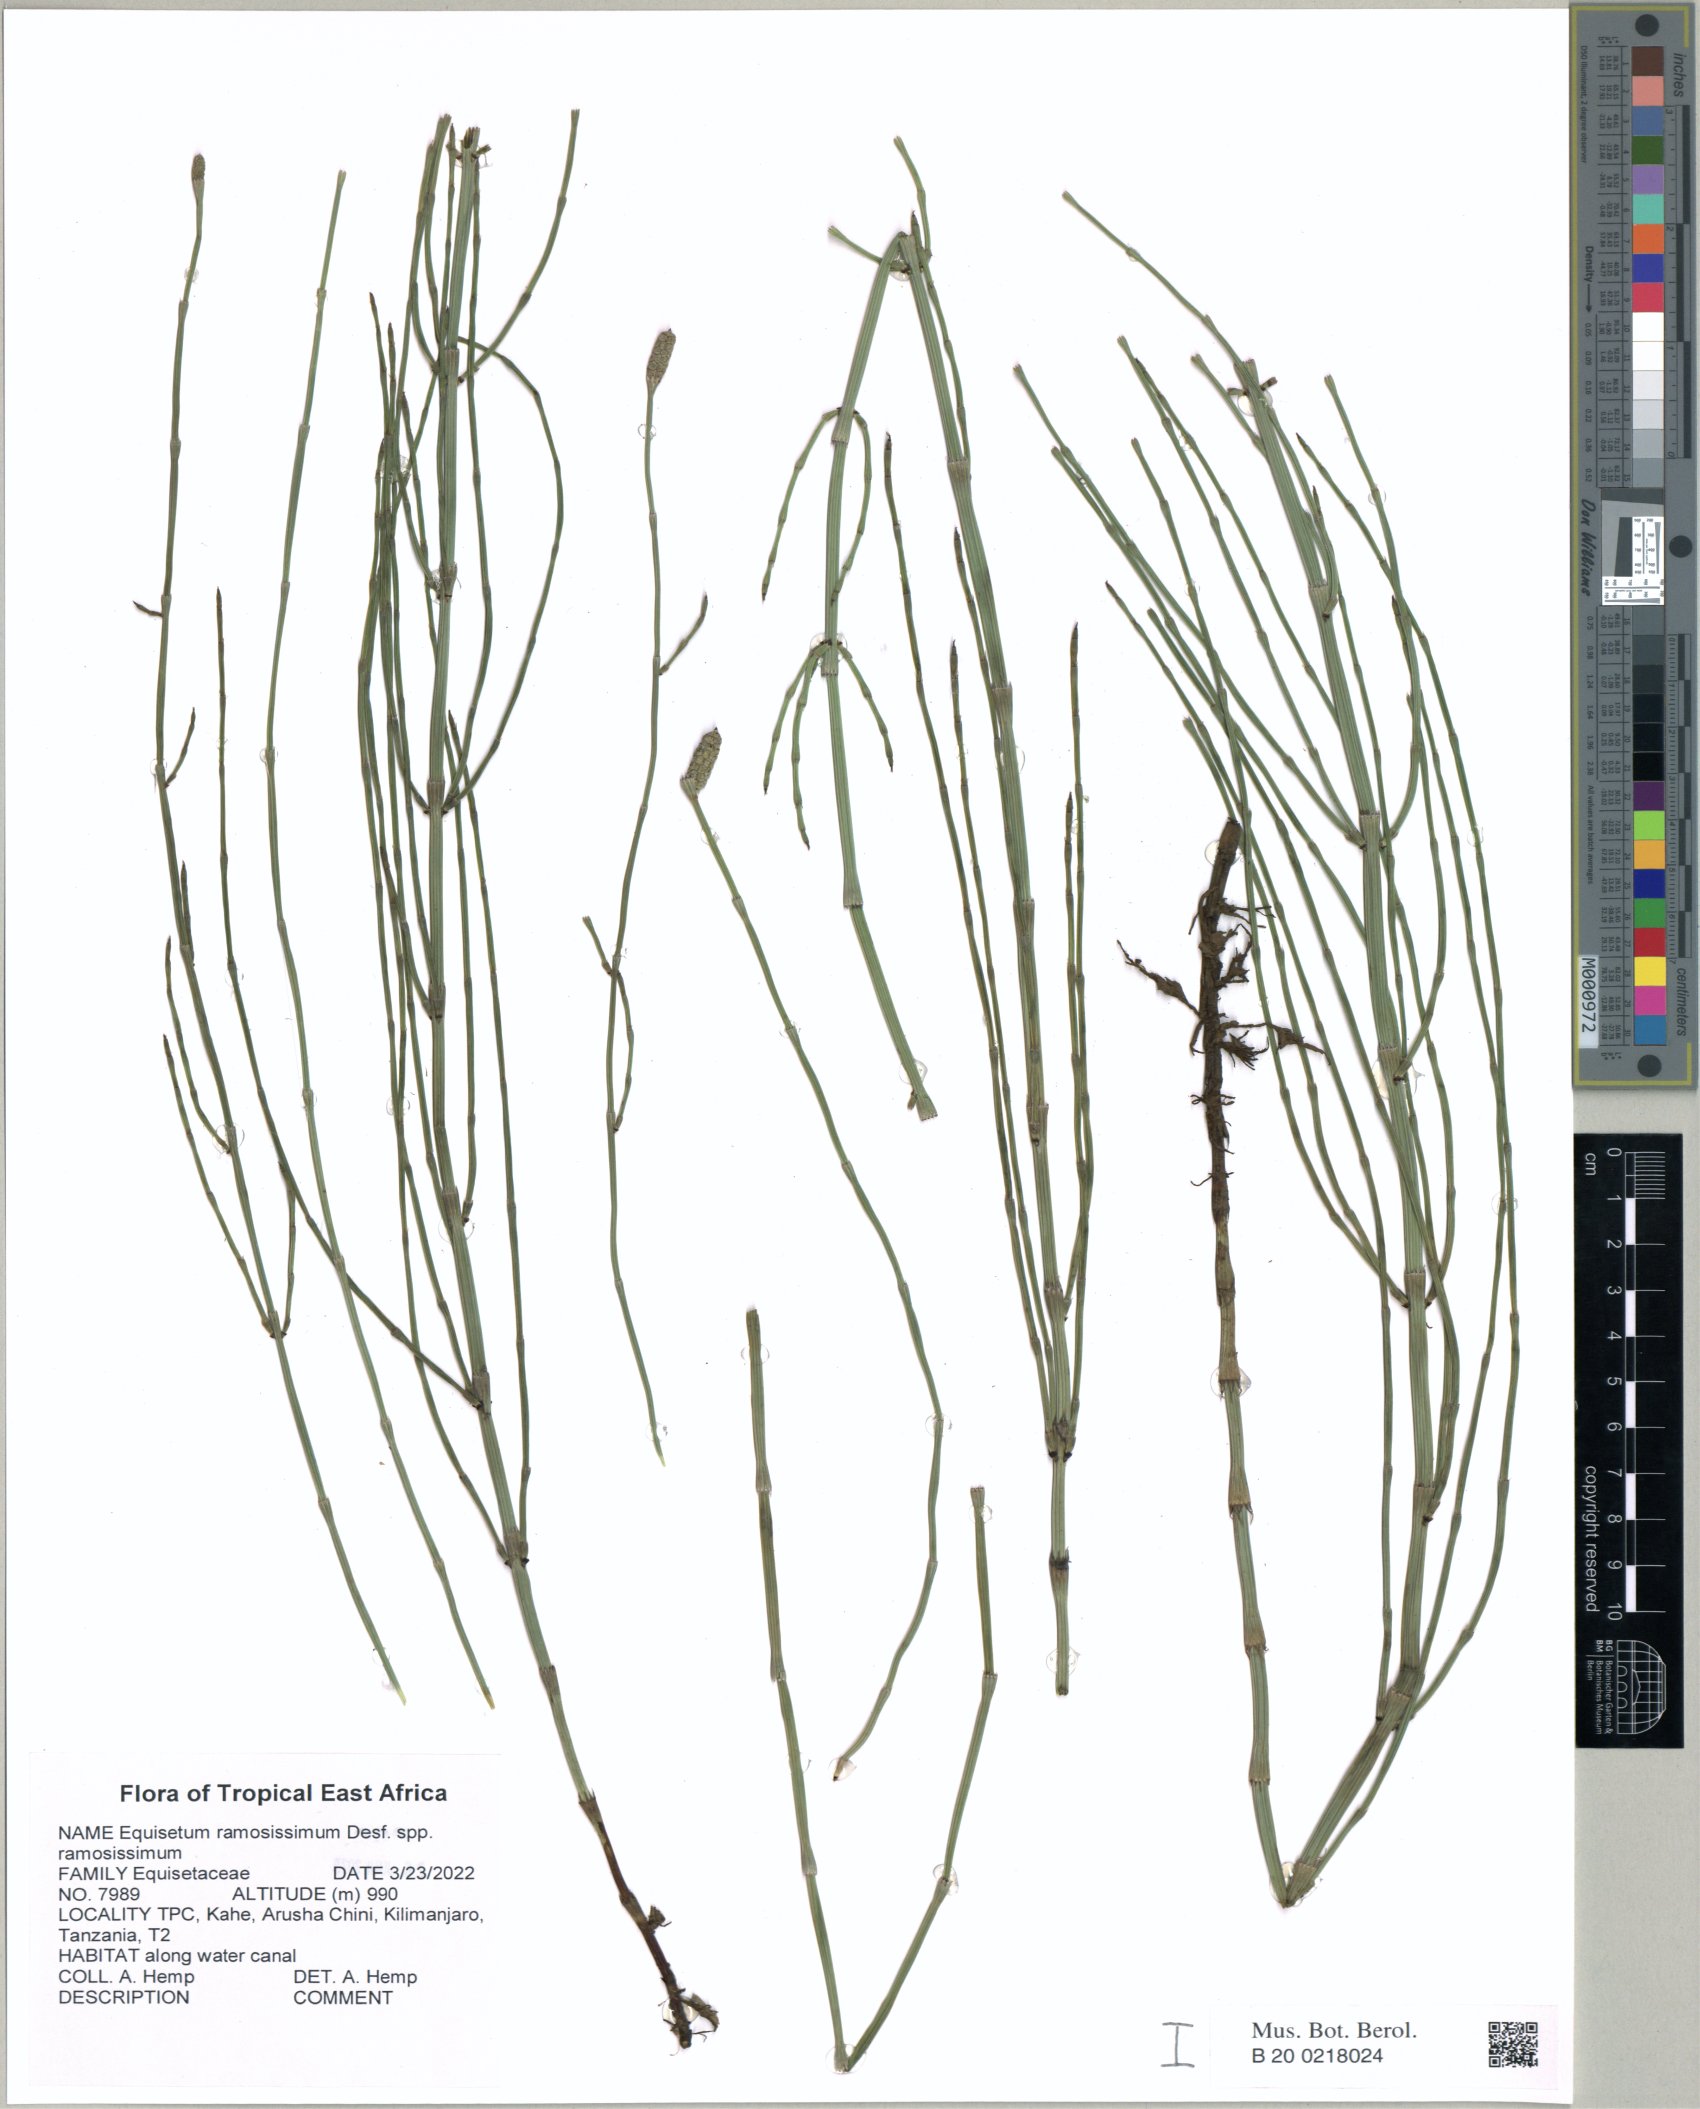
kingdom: Plantae
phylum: Tracheophyta
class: Polypodiopsida
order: Equisetales
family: Equisetaceae
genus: Equisetum
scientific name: Equisetum ramosissimum
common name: Branched horsetail
